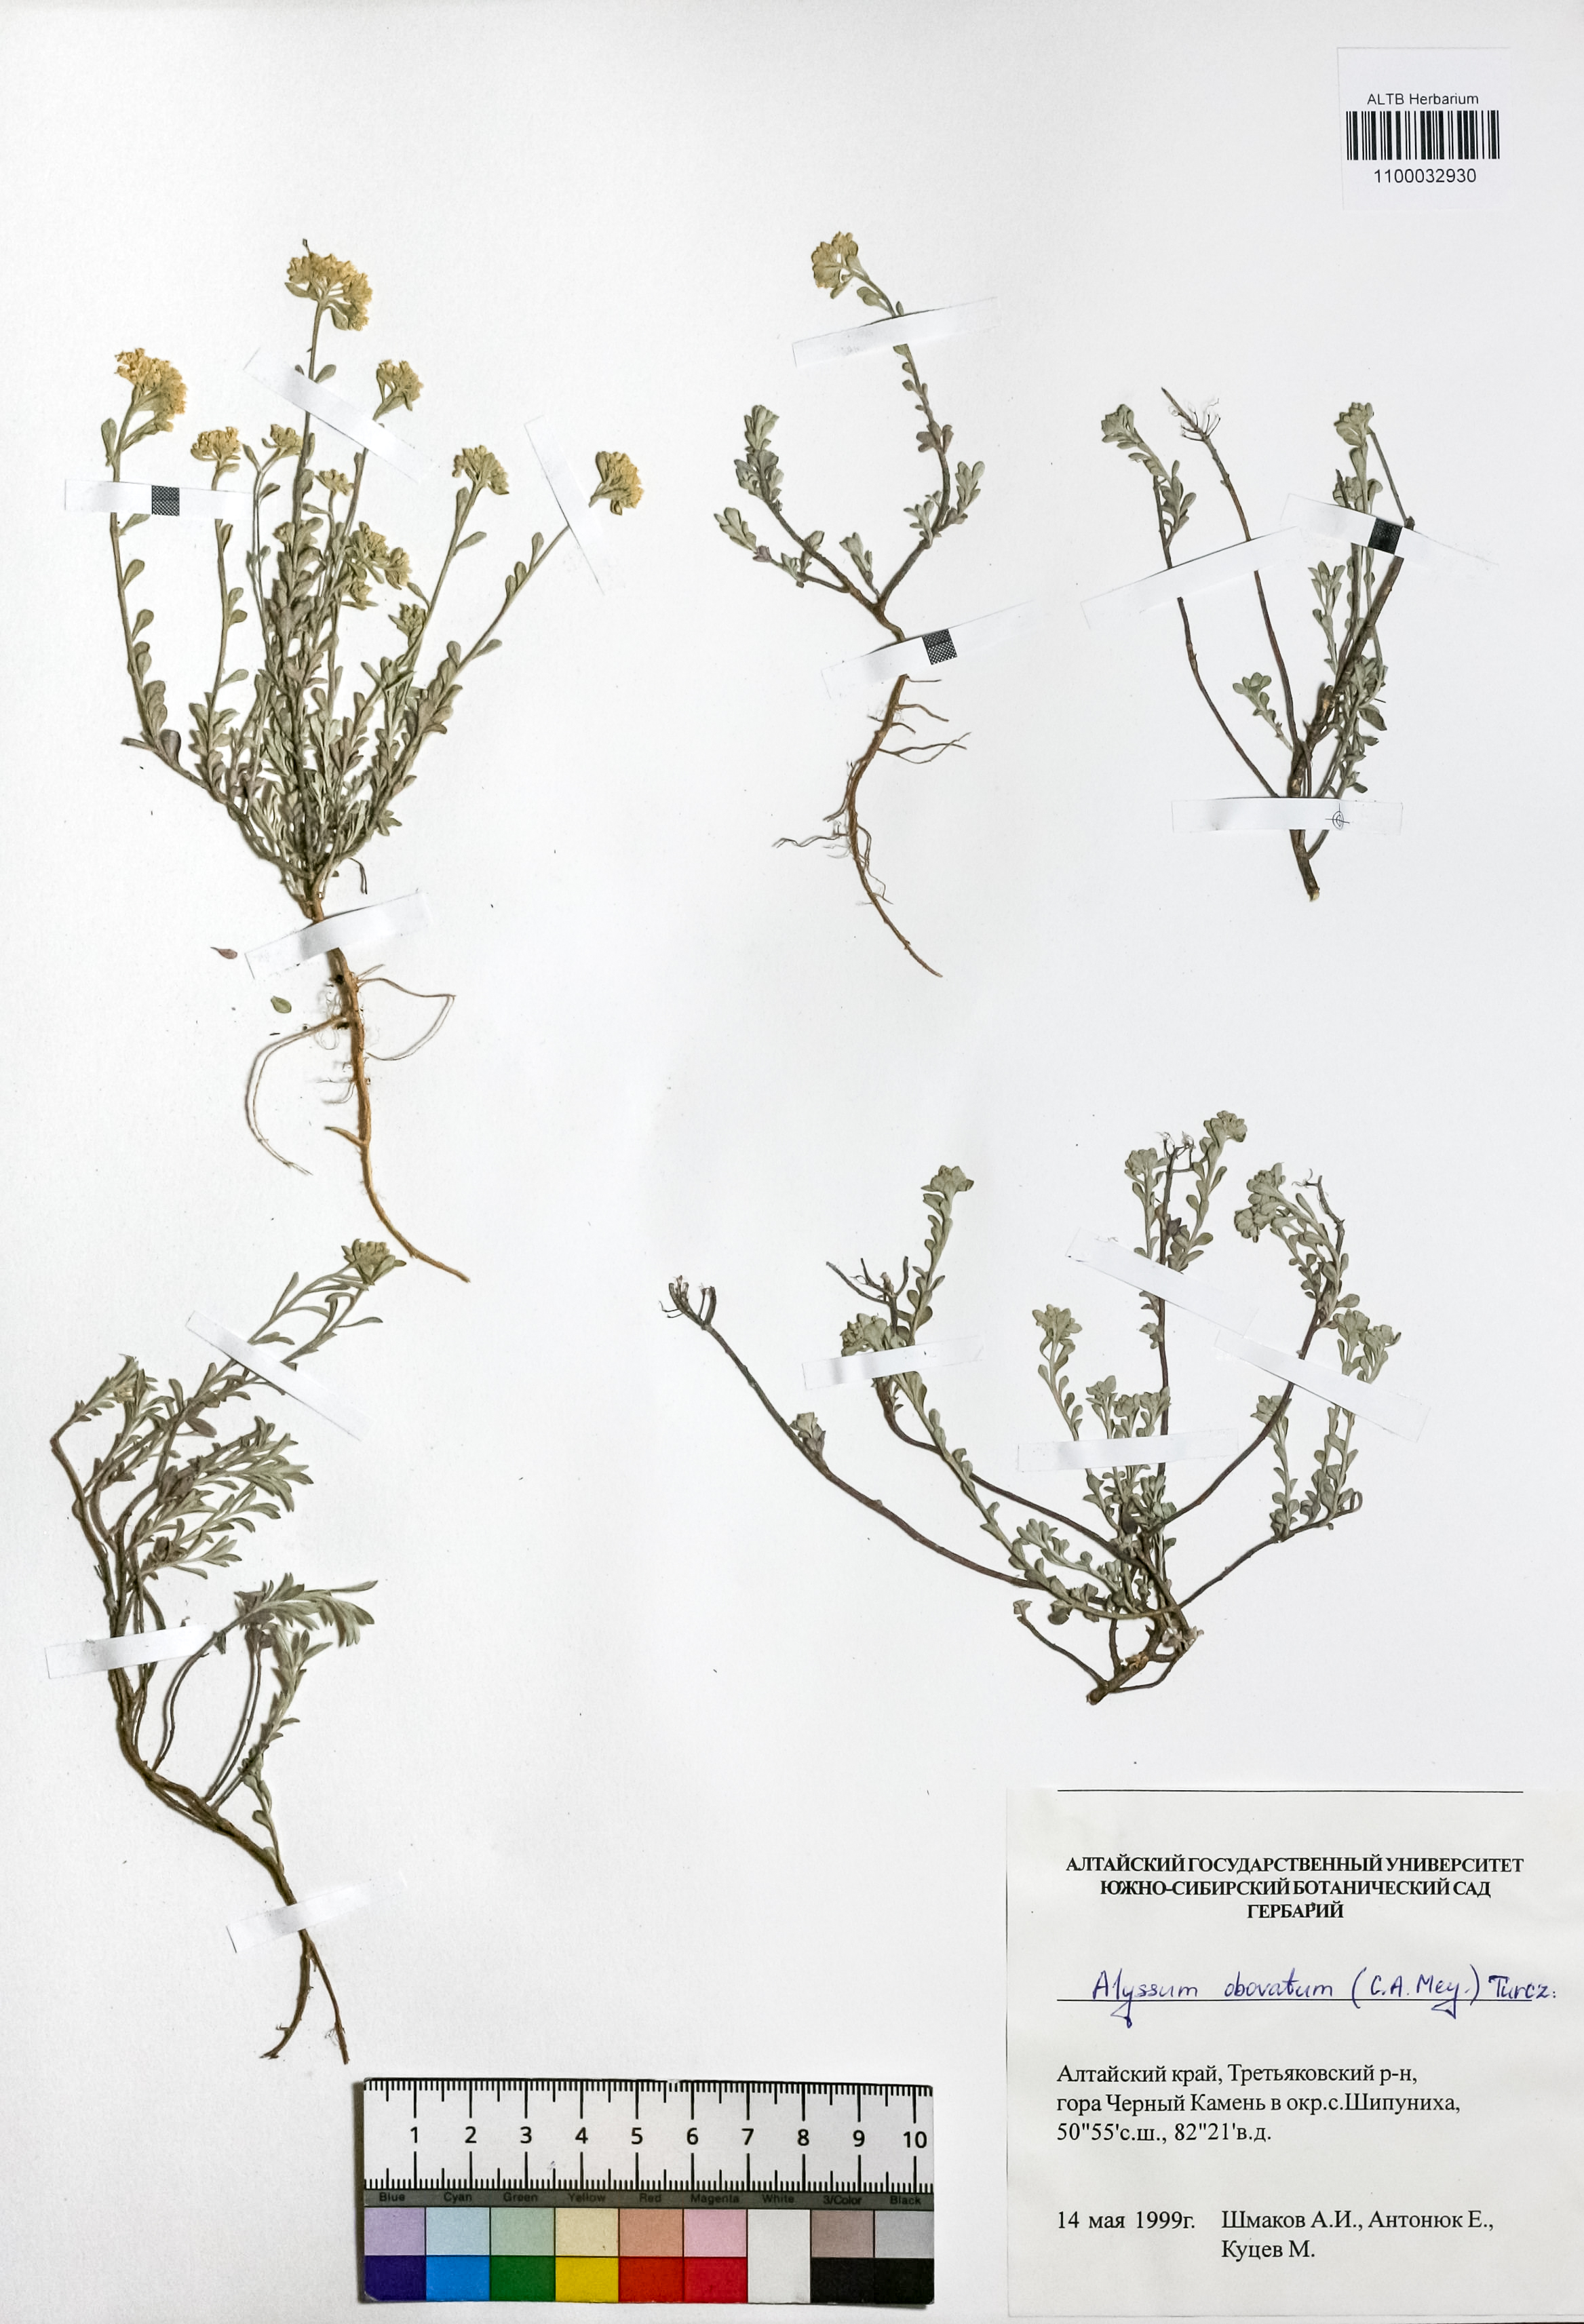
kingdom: Plantae
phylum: Tracheophyta
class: Magnoliopsida
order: Brassicales
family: Brassicaceae
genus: Odontarrhena
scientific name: Odontarrhena obovata
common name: American alyssum
